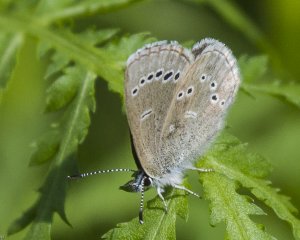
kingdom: Animalia
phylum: Arthropoda
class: Insecta
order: Lepidoptera
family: Lycaenidae
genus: Glaucopsyche
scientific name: Glaucopsyche lygdamus
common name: Silvery Blue
